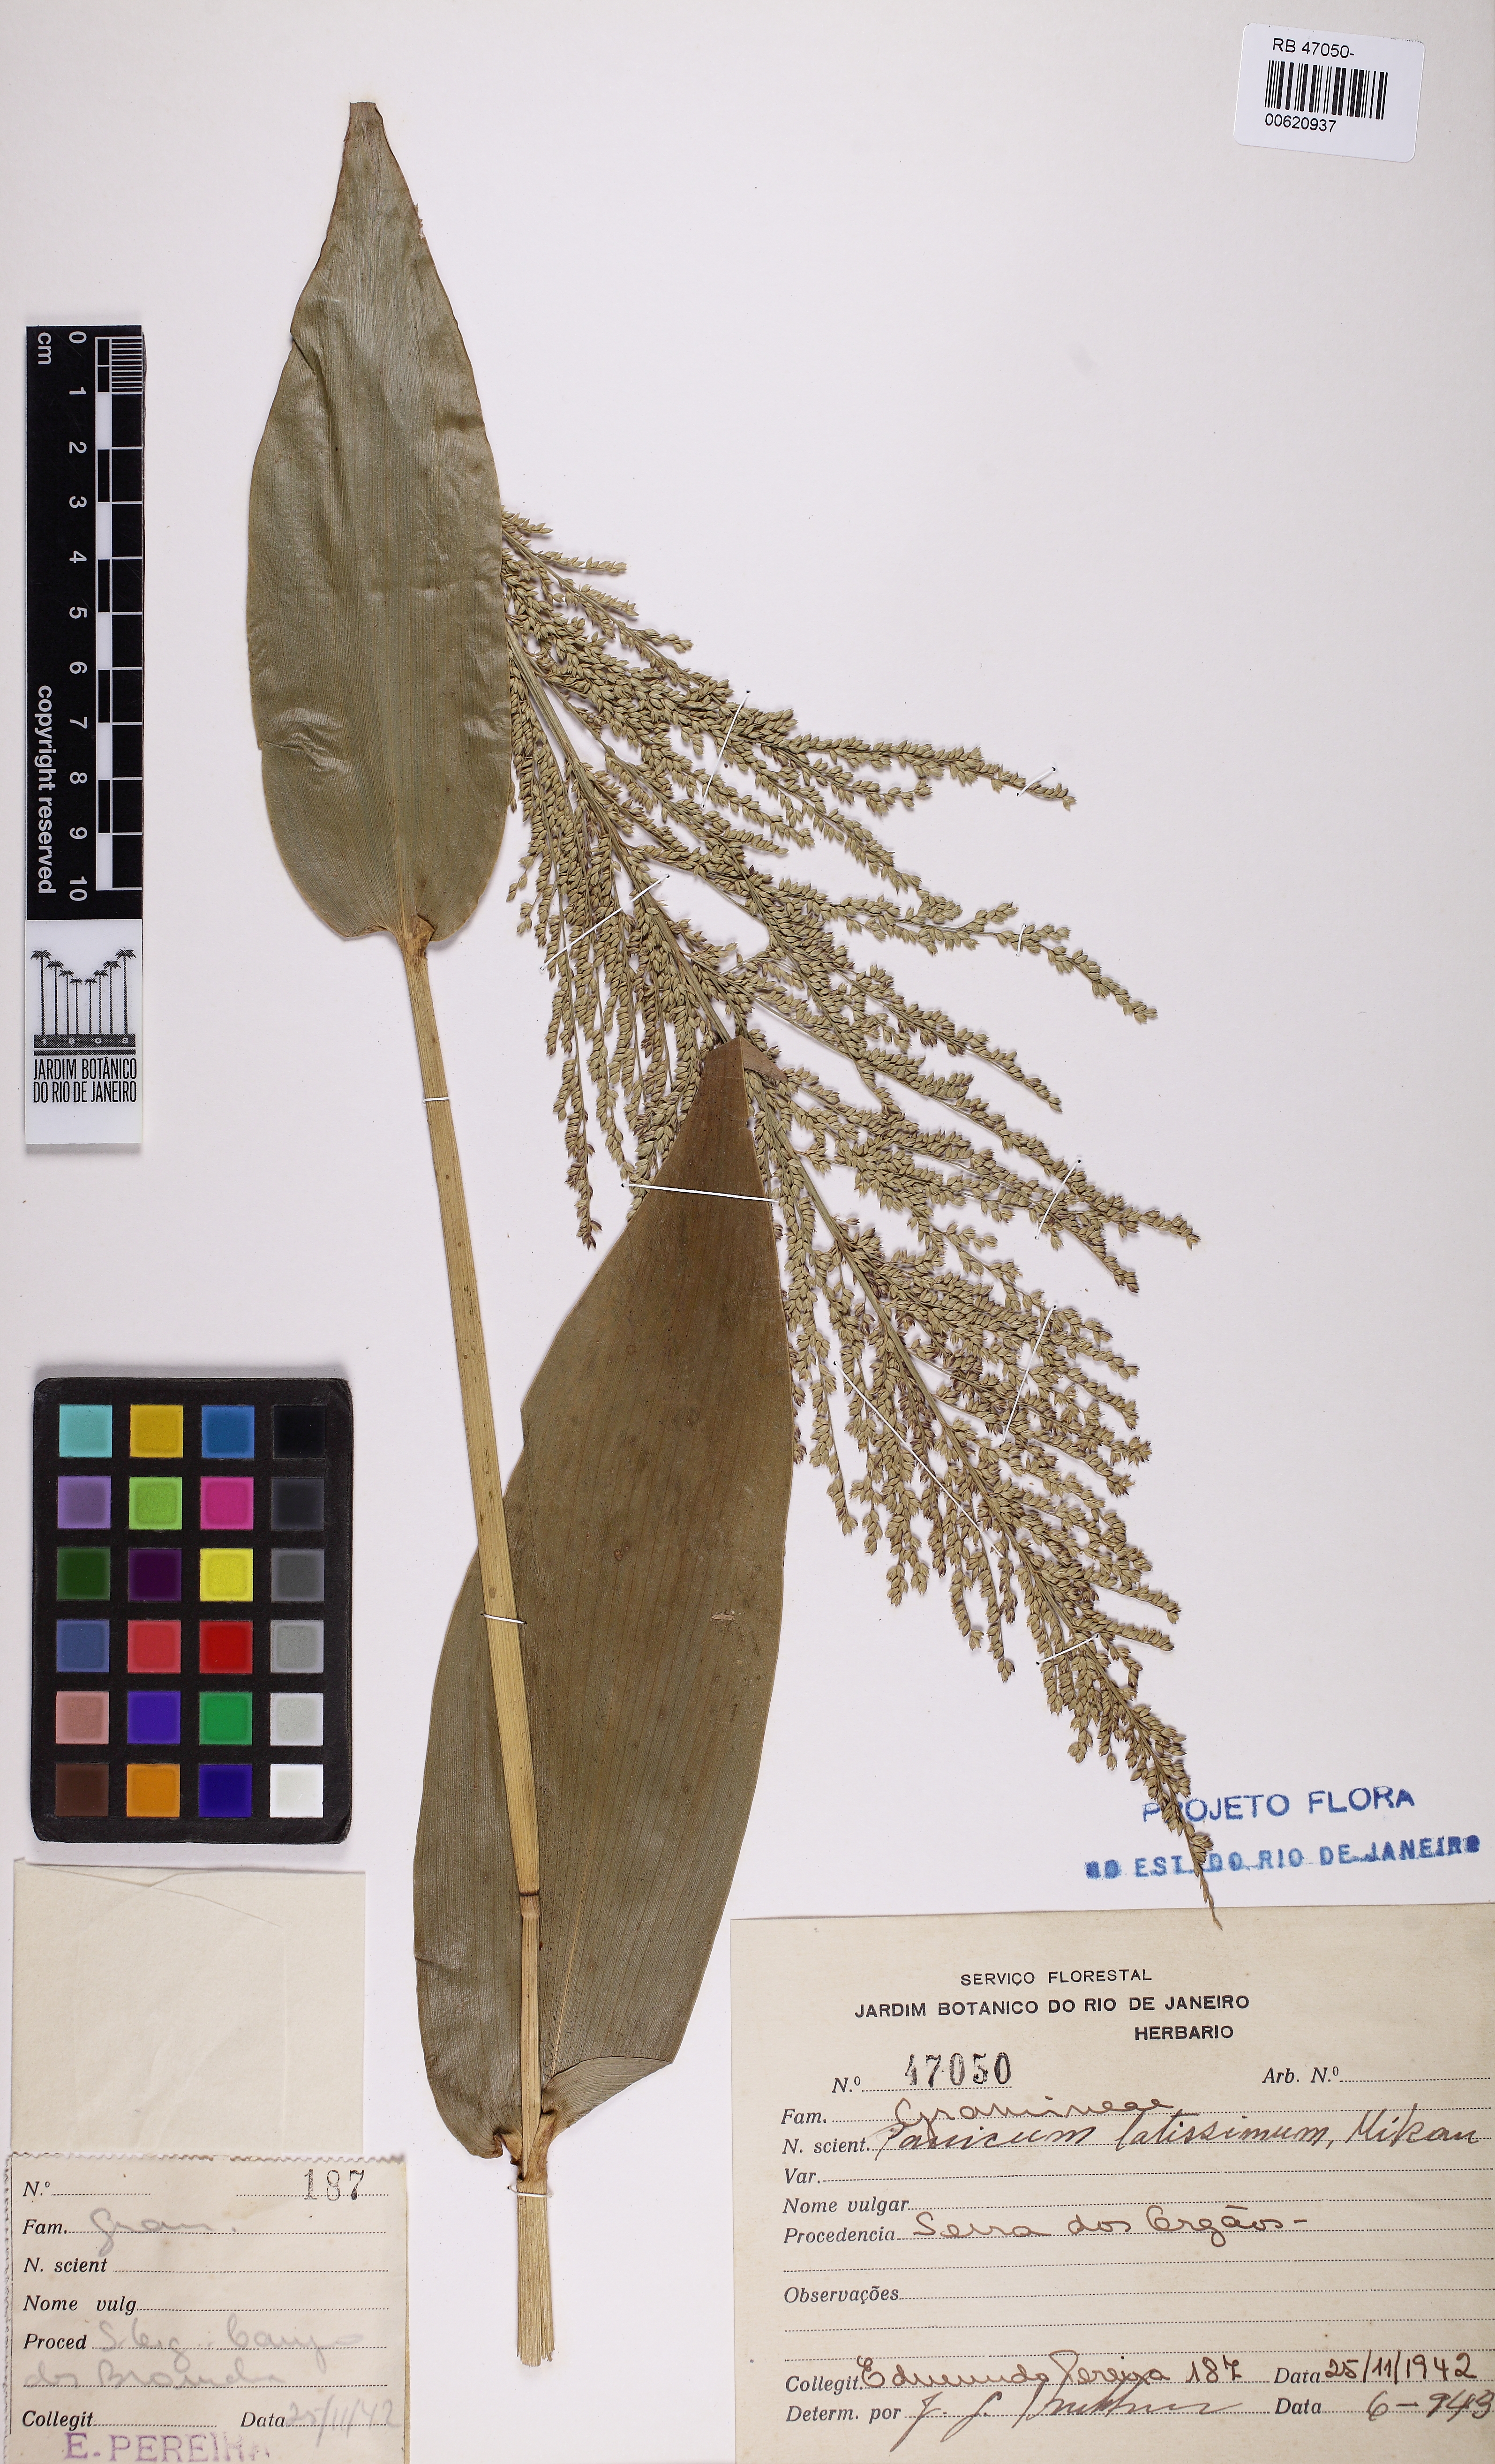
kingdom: Plantae
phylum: Tracheophyta
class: Liliopsida
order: Poales
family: Poaceae
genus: Ocellochloa
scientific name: Ocellochloa latissima
